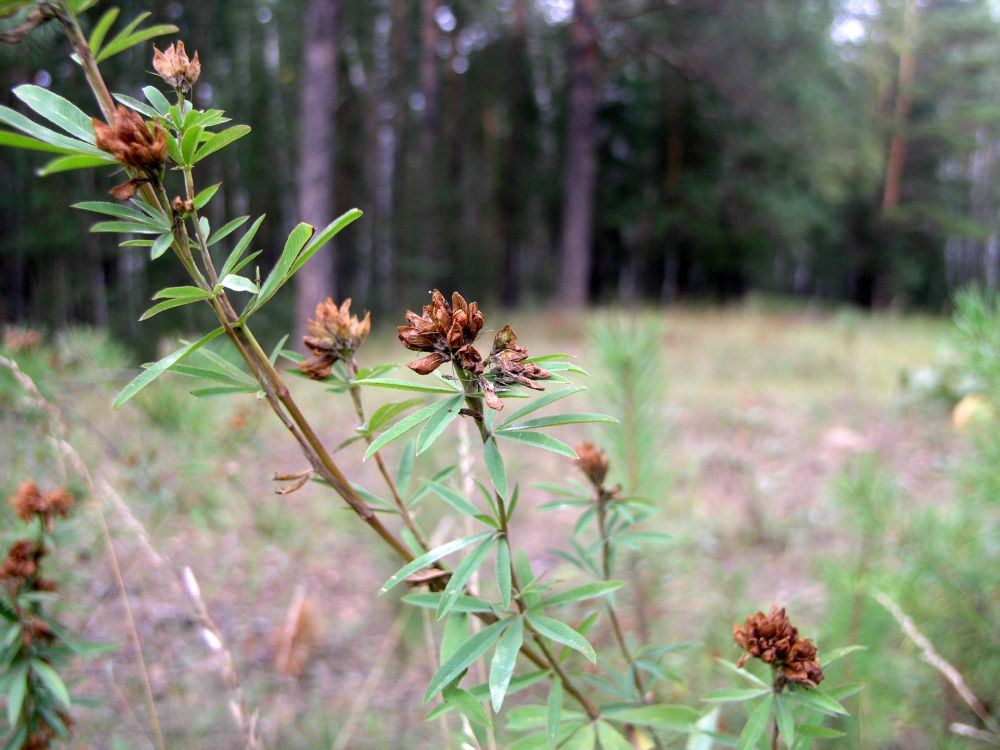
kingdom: Plantae
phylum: Tracheophyta
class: Magnoliopsida
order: Fabales
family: Fabaceae
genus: Trifolium
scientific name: Trifolium lupinaster
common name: Lupine clover
